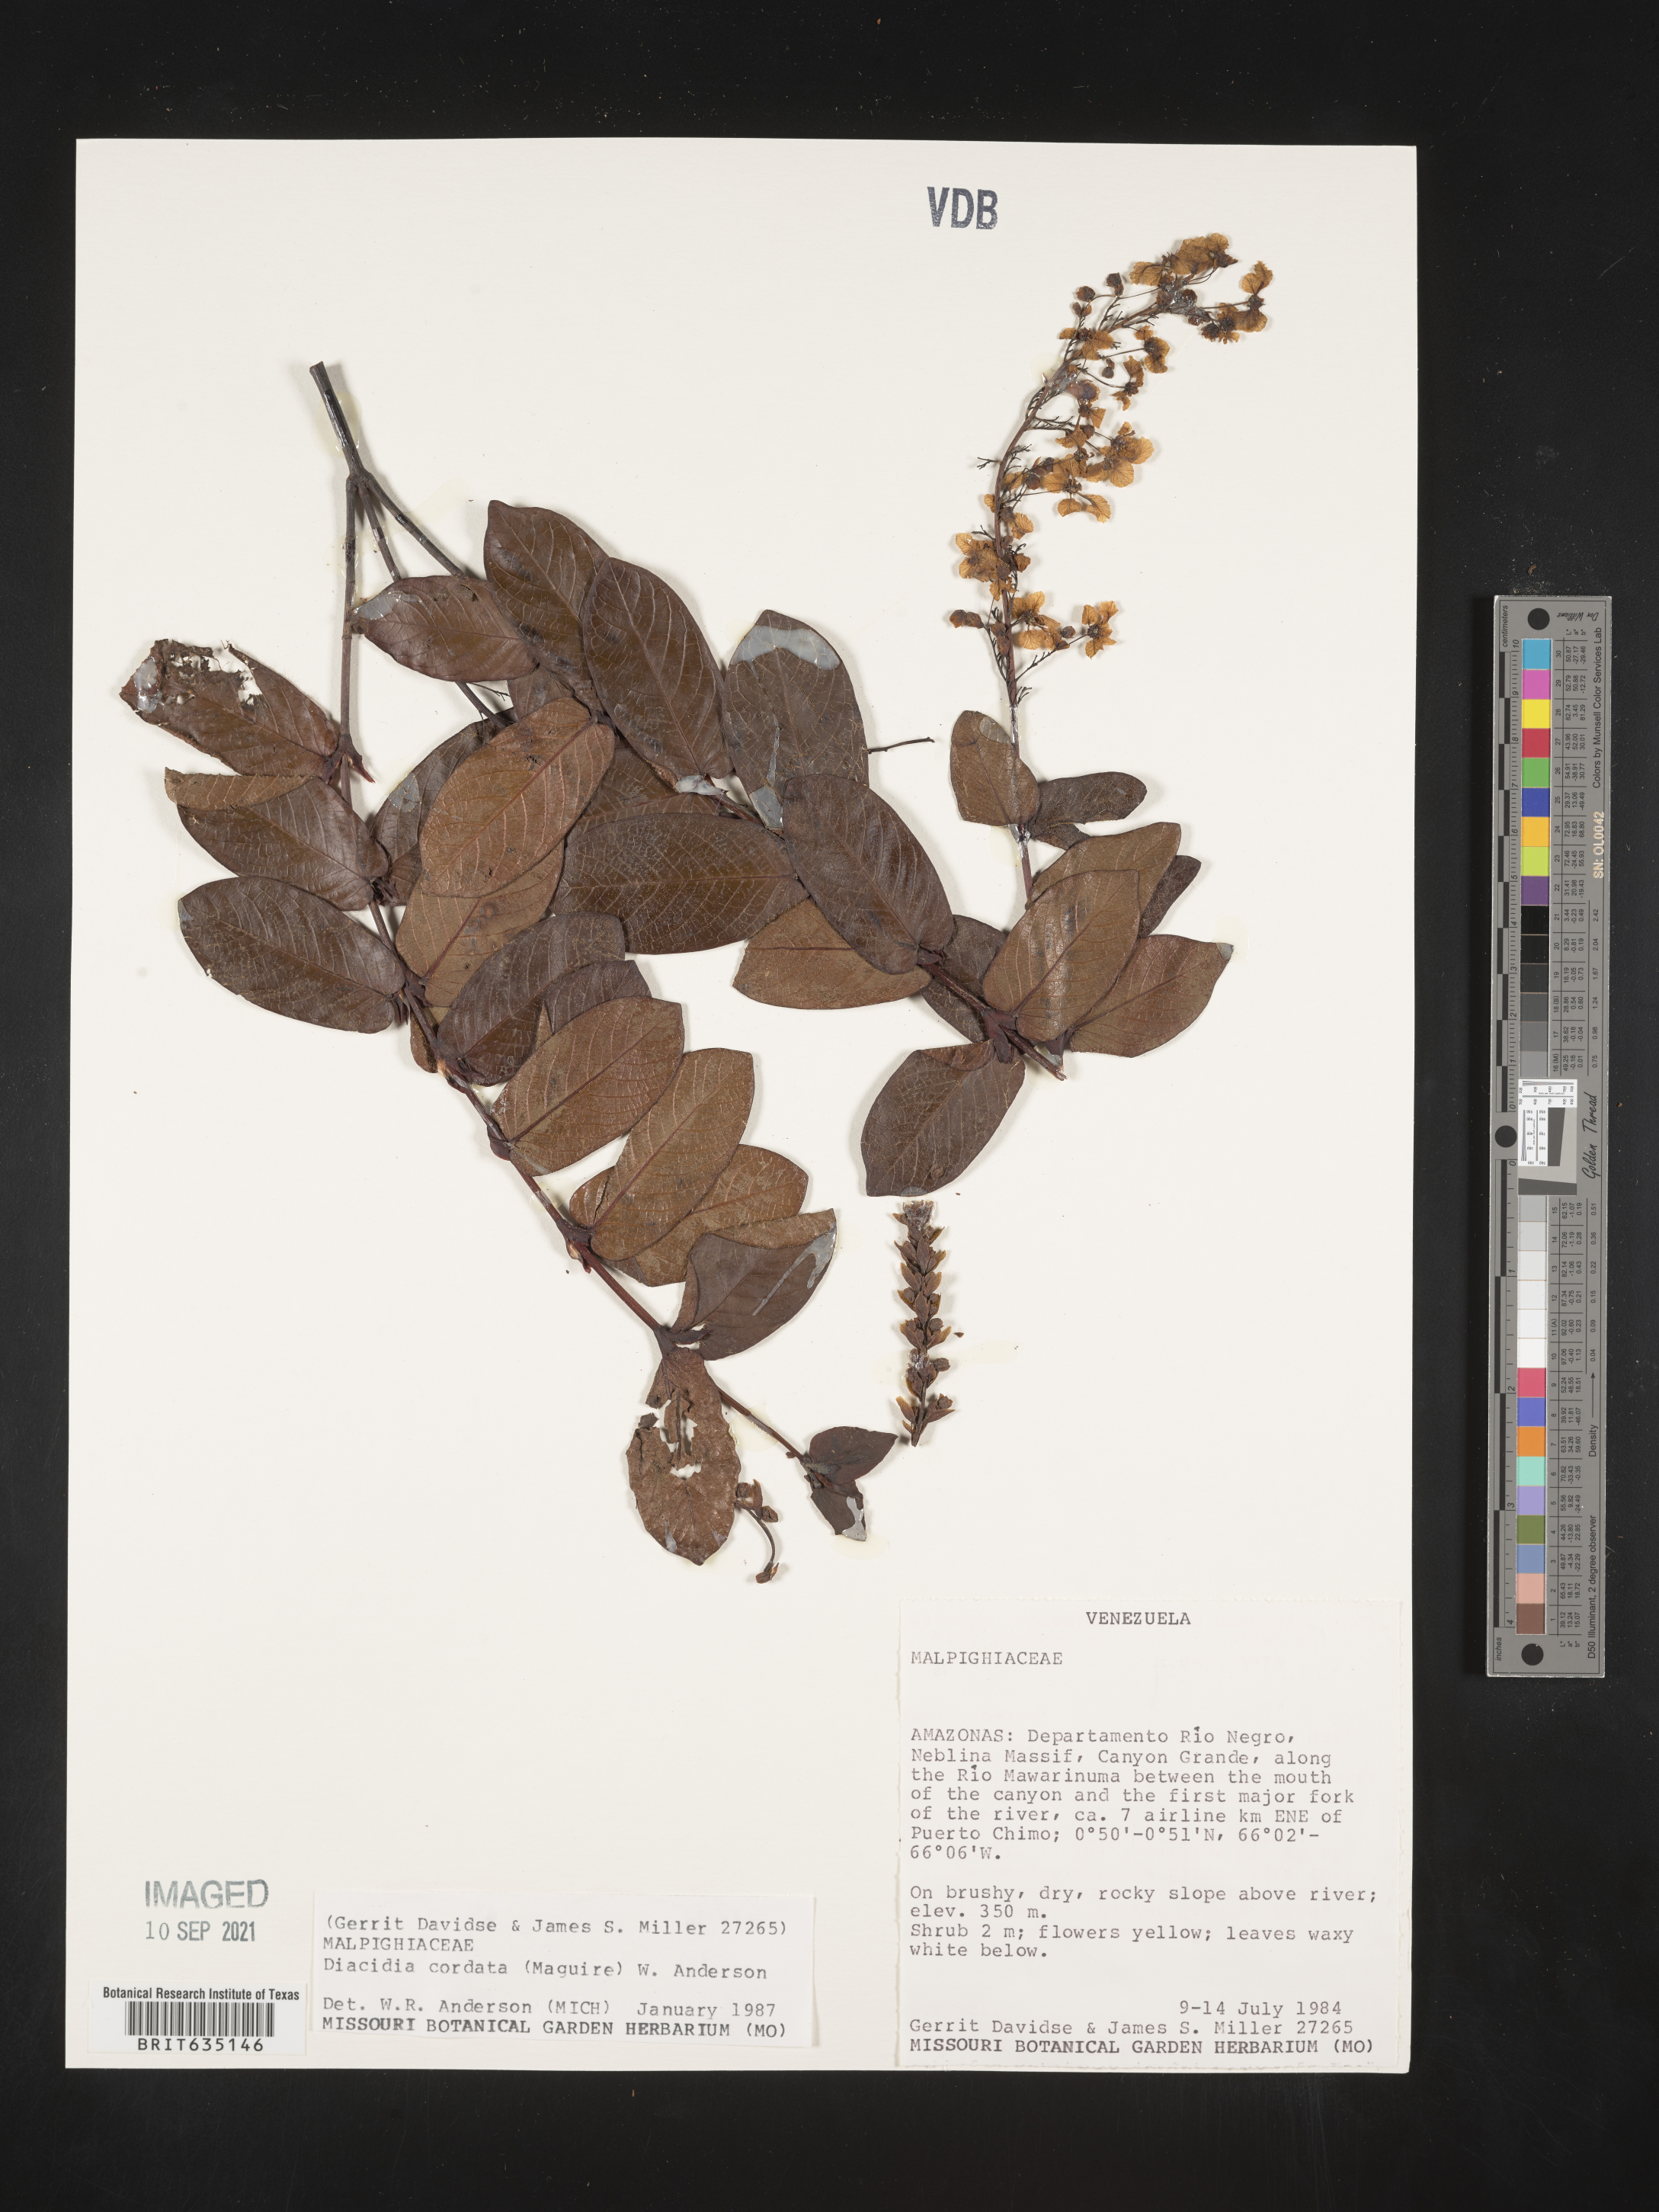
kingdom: Plantae
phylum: Tracheophyta
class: Magnoliopsida
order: Malpighiales
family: Malpighiaceae
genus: Diacidia
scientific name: Diacidia
